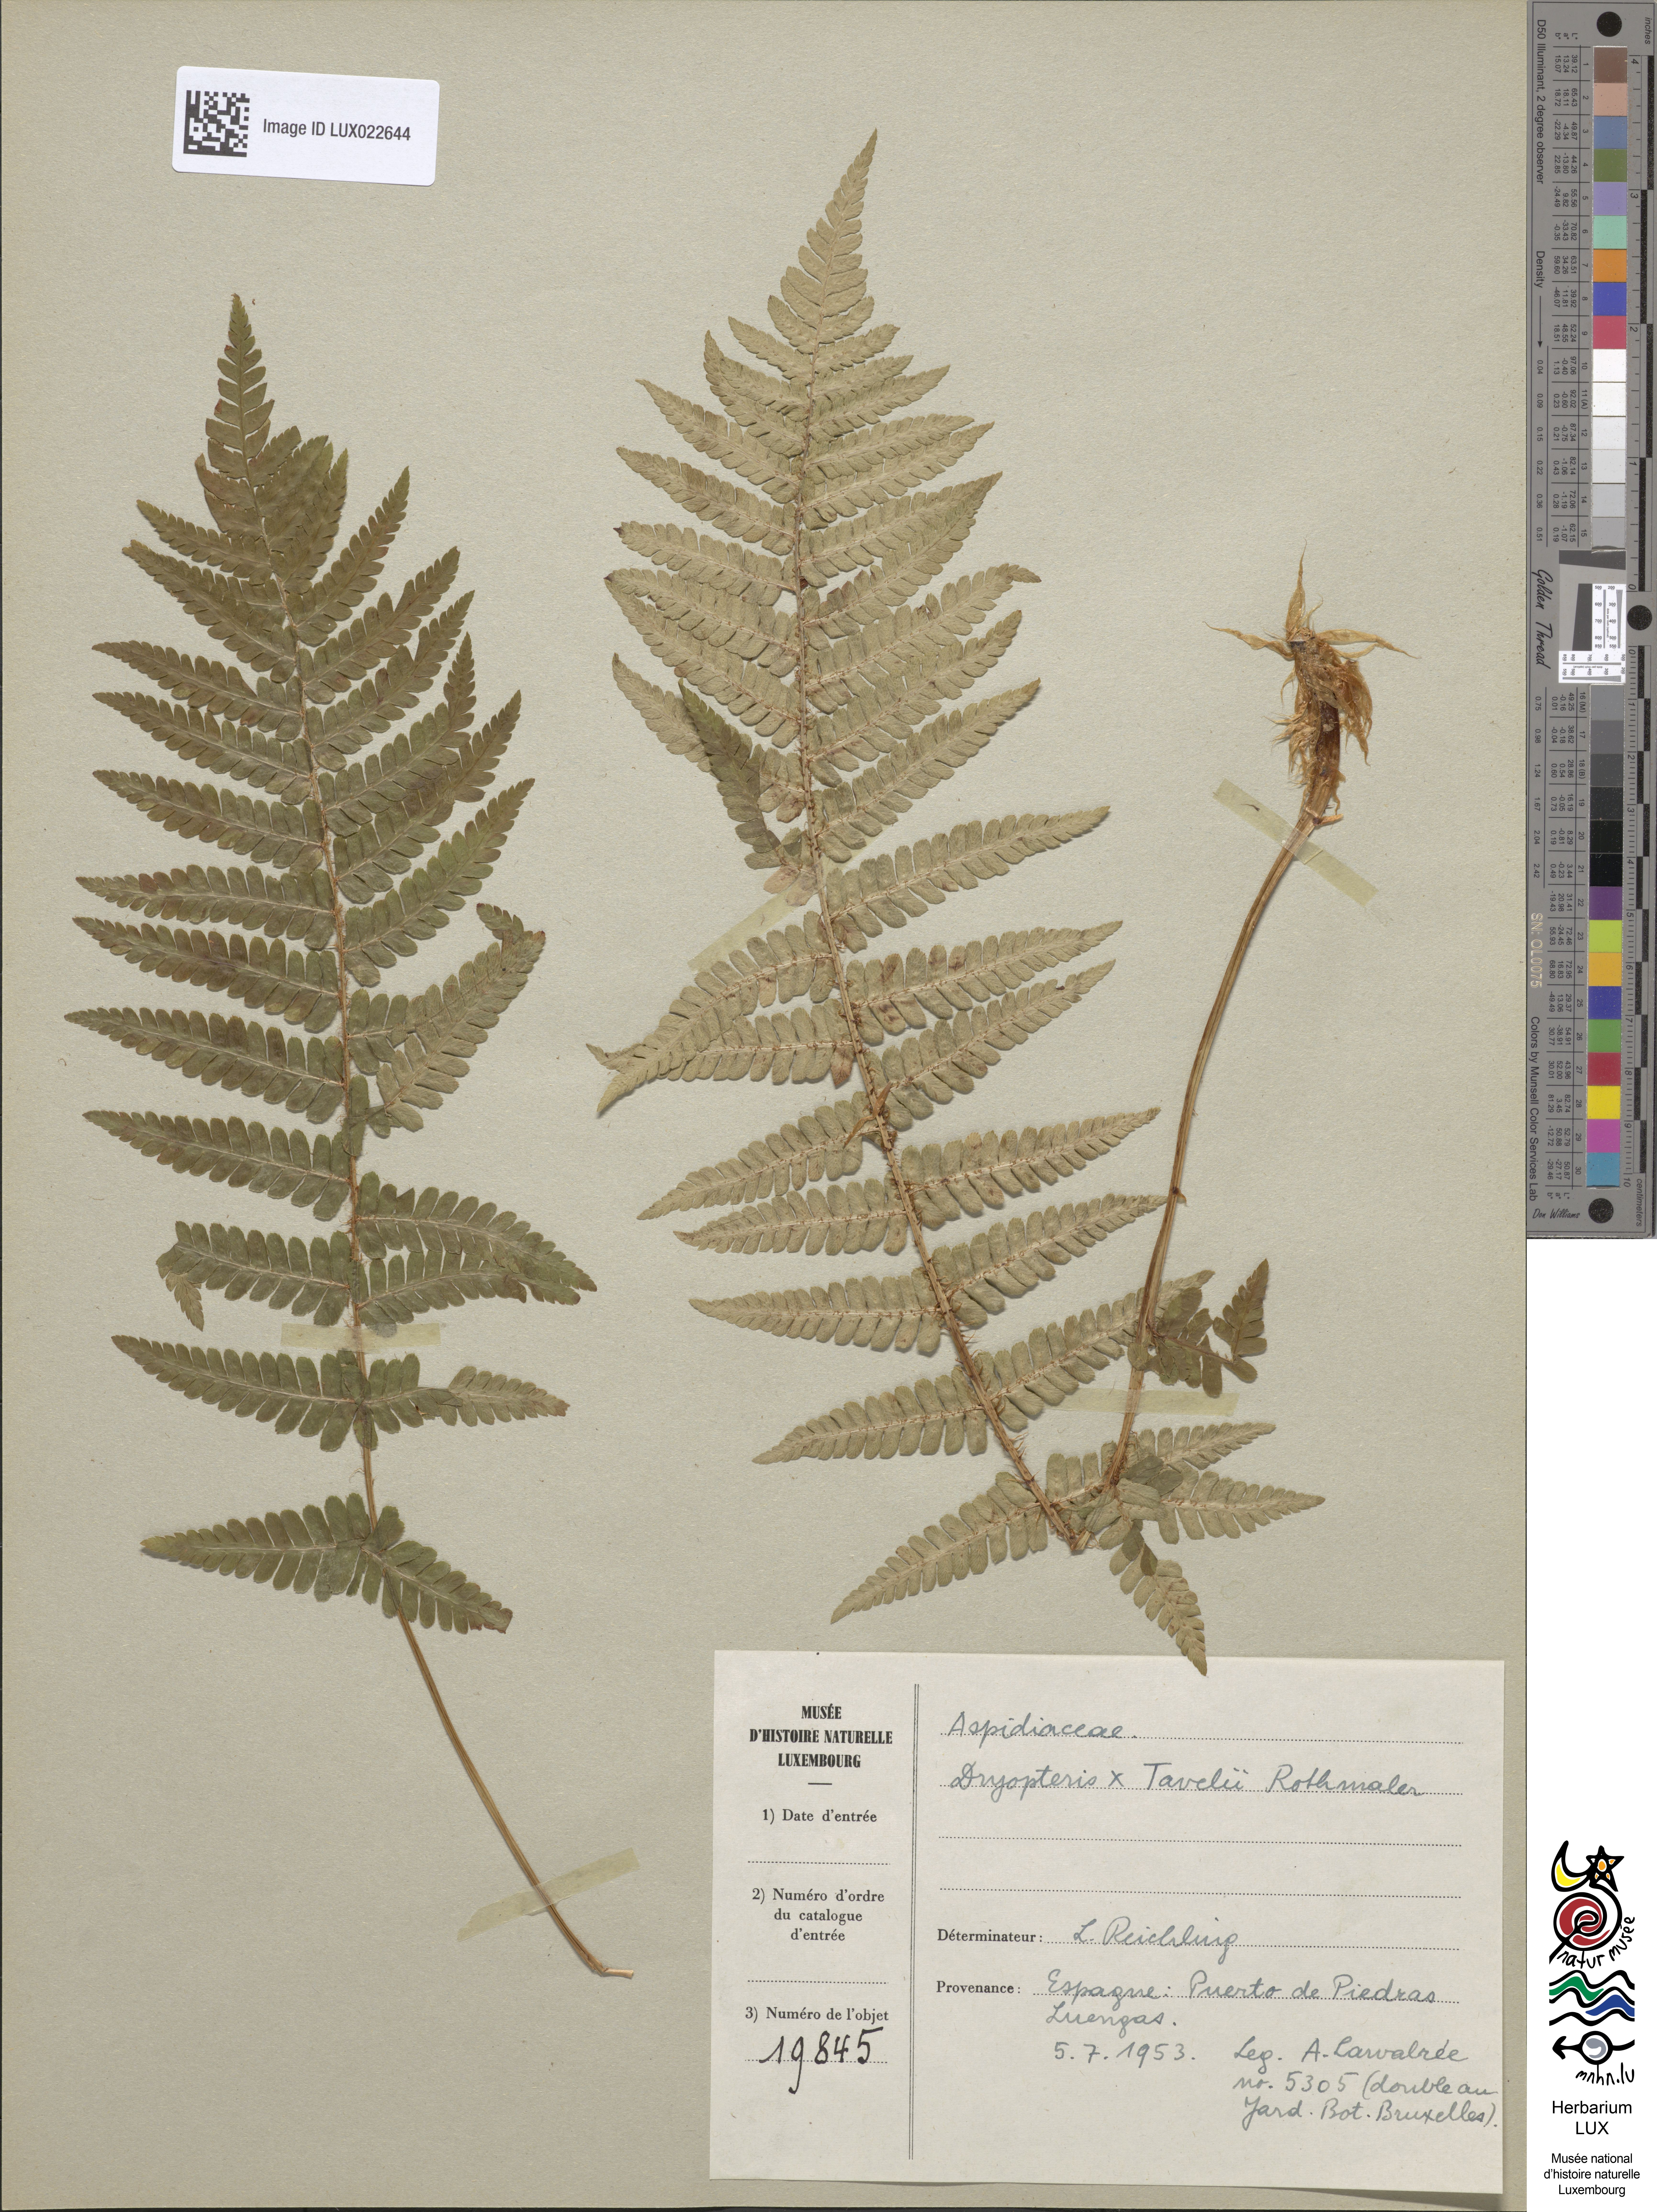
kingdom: Plantae
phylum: Tracheophyta
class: Polypodiopsida
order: Polypodiales
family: Dryopteridaceae
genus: Dryopteris
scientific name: Dryopteris borreri
